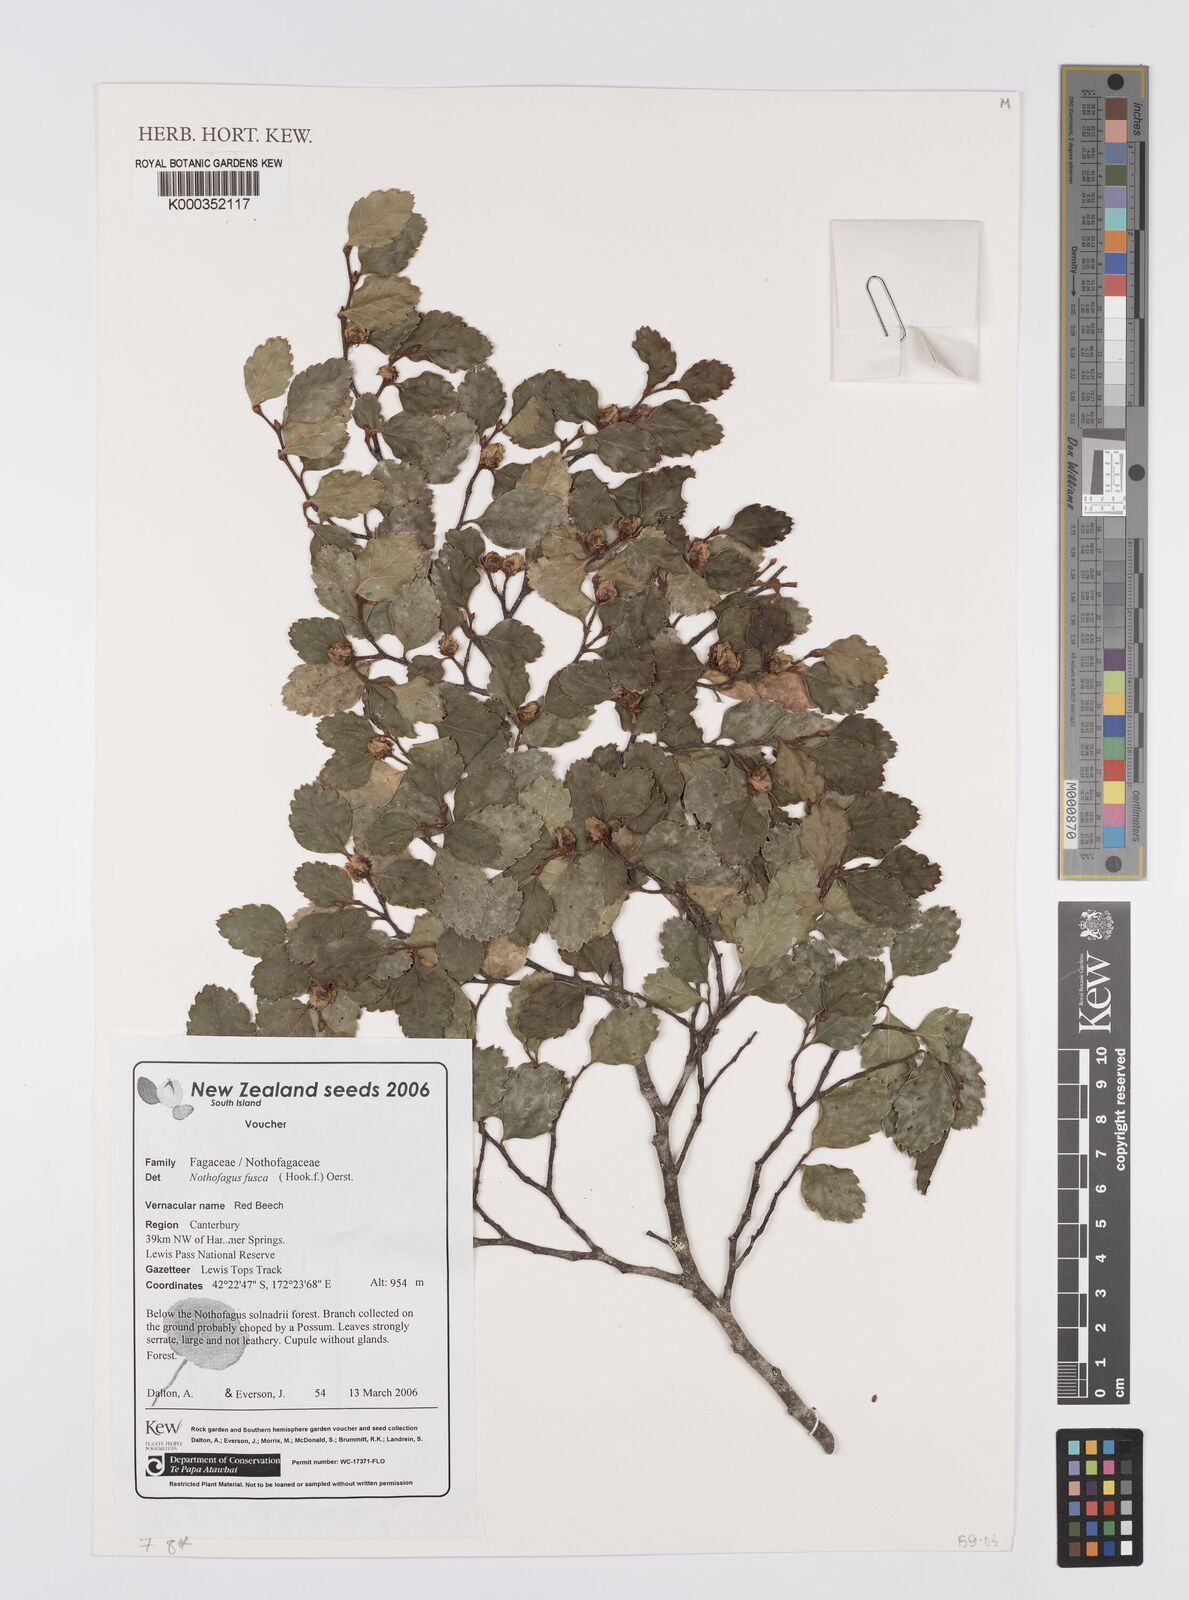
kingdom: Plantae
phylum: Tracheophyta
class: Magnoliopsida
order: Fagales
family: Nothofagaceae
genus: Nothofagus
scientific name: Nothofagus fusca
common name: Red beech
